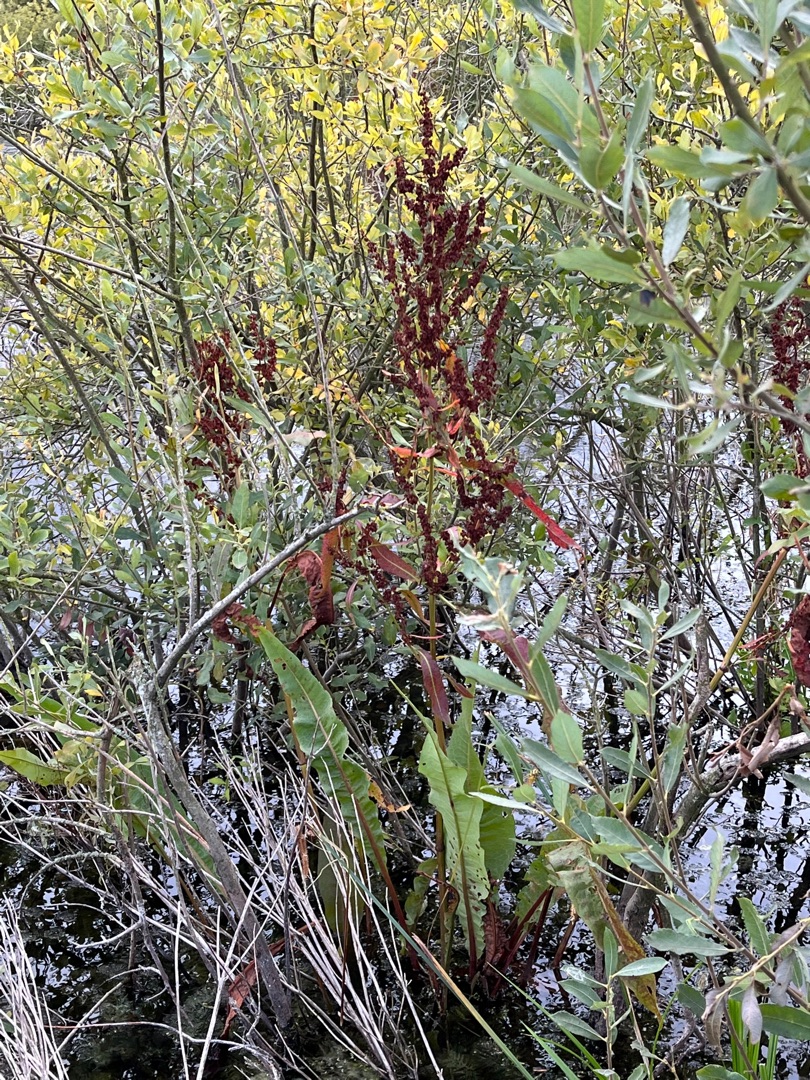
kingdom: Plantae
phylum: Tracheophyta
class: Magnoliopsida
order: Caryophyllales
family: Polygonaceae
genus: Rumex
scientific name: Rumex hydrolapathum
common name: Vand-skræppe
